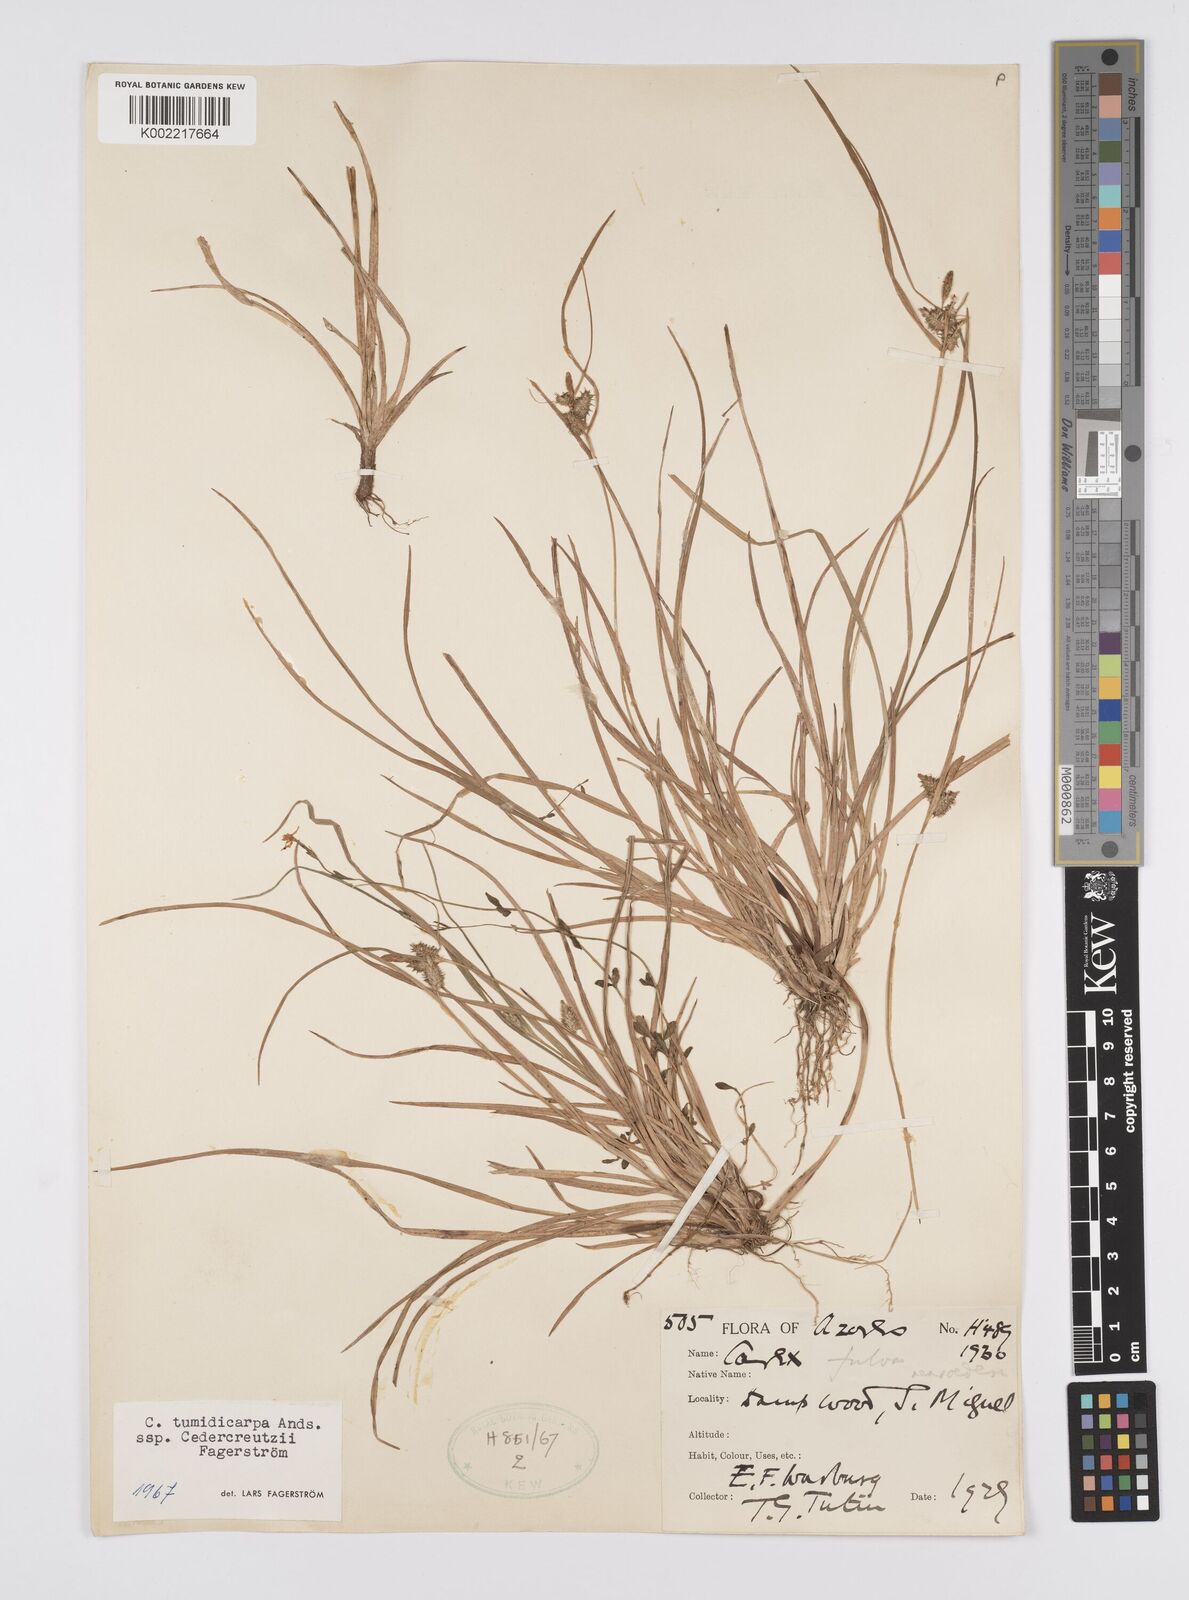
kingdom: Plantae
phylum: Tracheophyta
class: Liliopsida
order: Poales
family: Cyperaceae
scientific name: Cyperaceae
